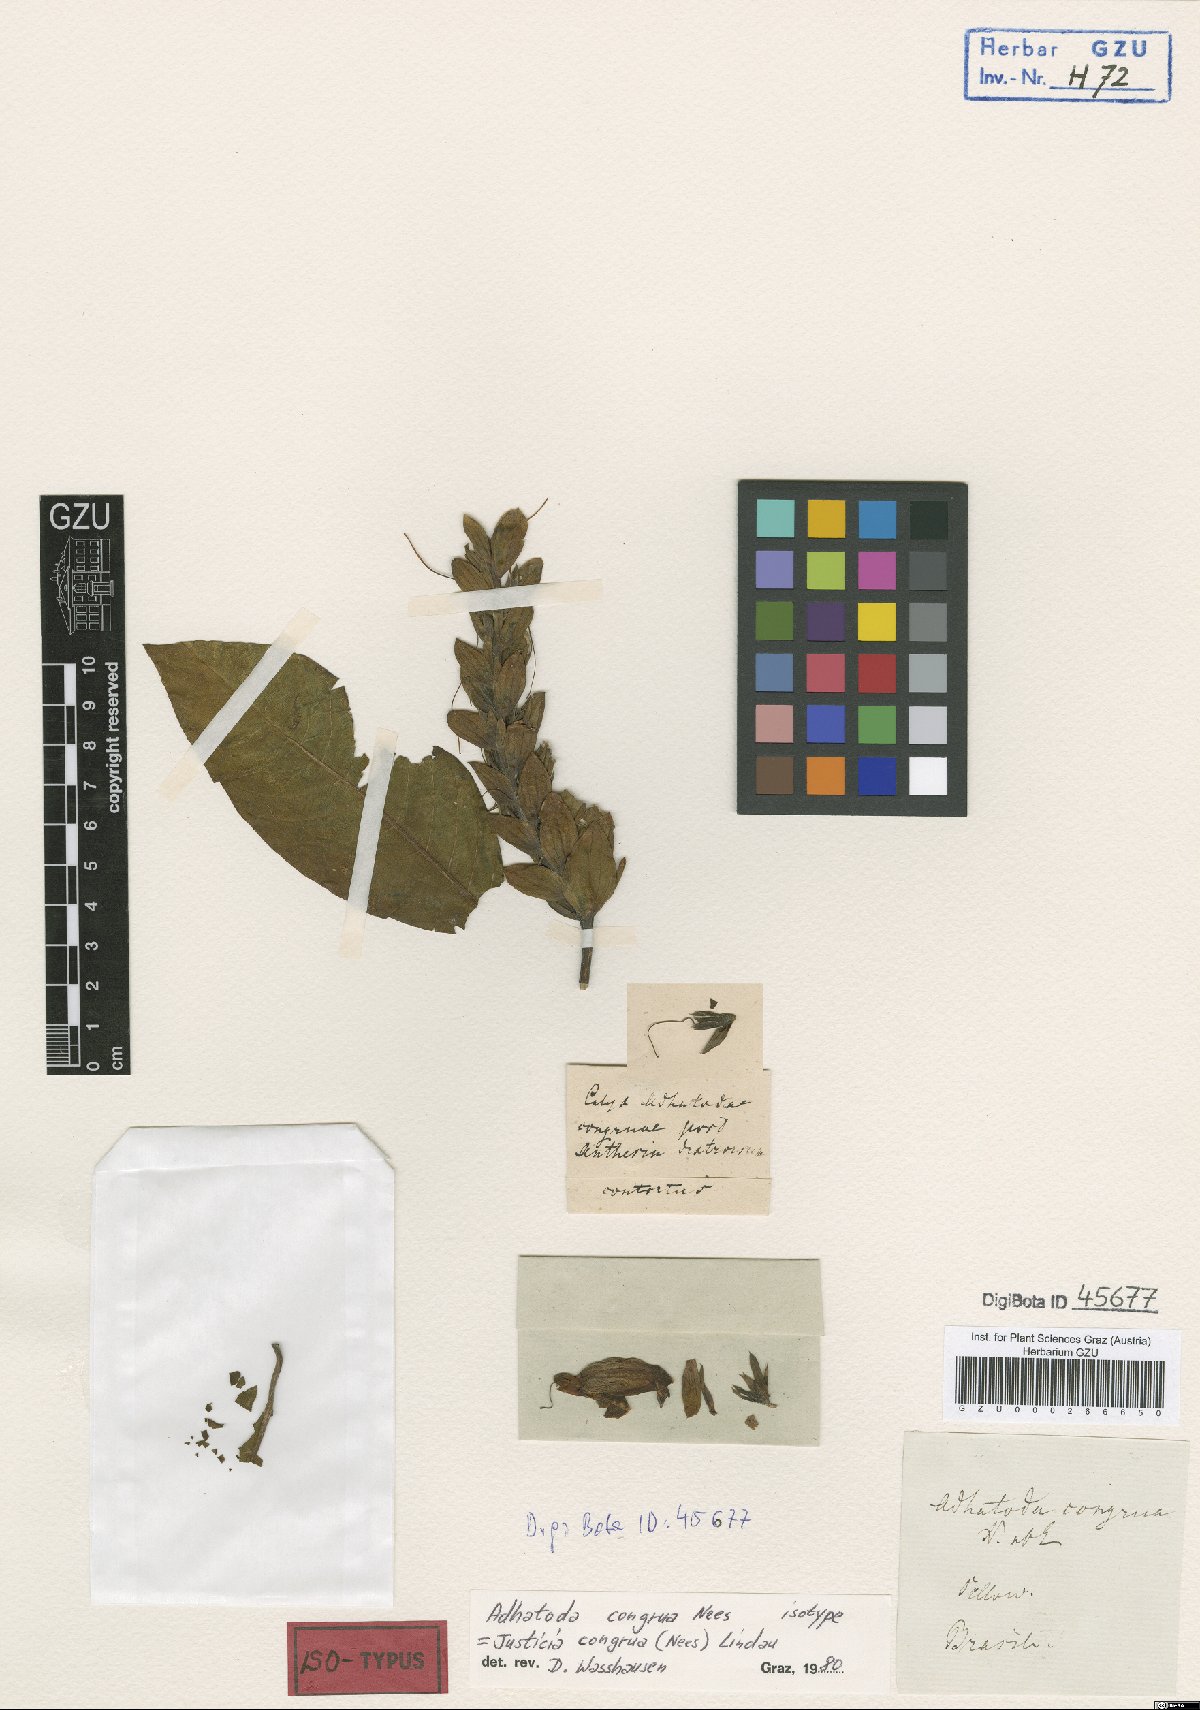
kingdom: Plantae
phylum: Tracheophyta
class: Magnoliopsida
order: Lamiales
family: Acanthaceae
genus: Justicia
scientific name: Justicia congrua
